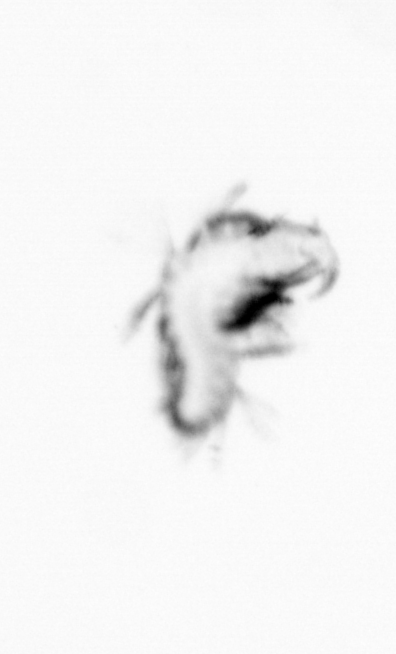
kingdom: Animalia
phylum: Annelida
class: Polychaeta
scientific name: Polychaeta
